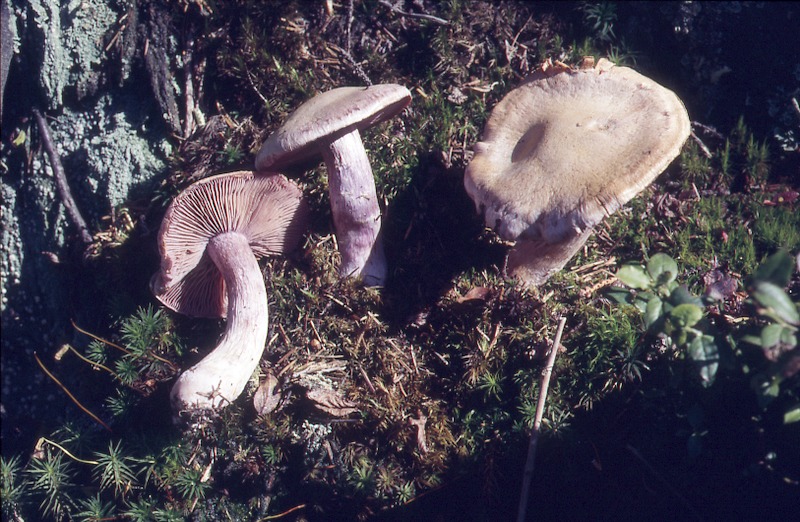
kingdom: Fungi
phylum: Basidiomycota
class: Agaricomycetes
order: Agaricales
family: Cortinariaceae
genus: Cortinarius
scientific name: Cortinarius camphoratus
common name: Goatcheese webcap
